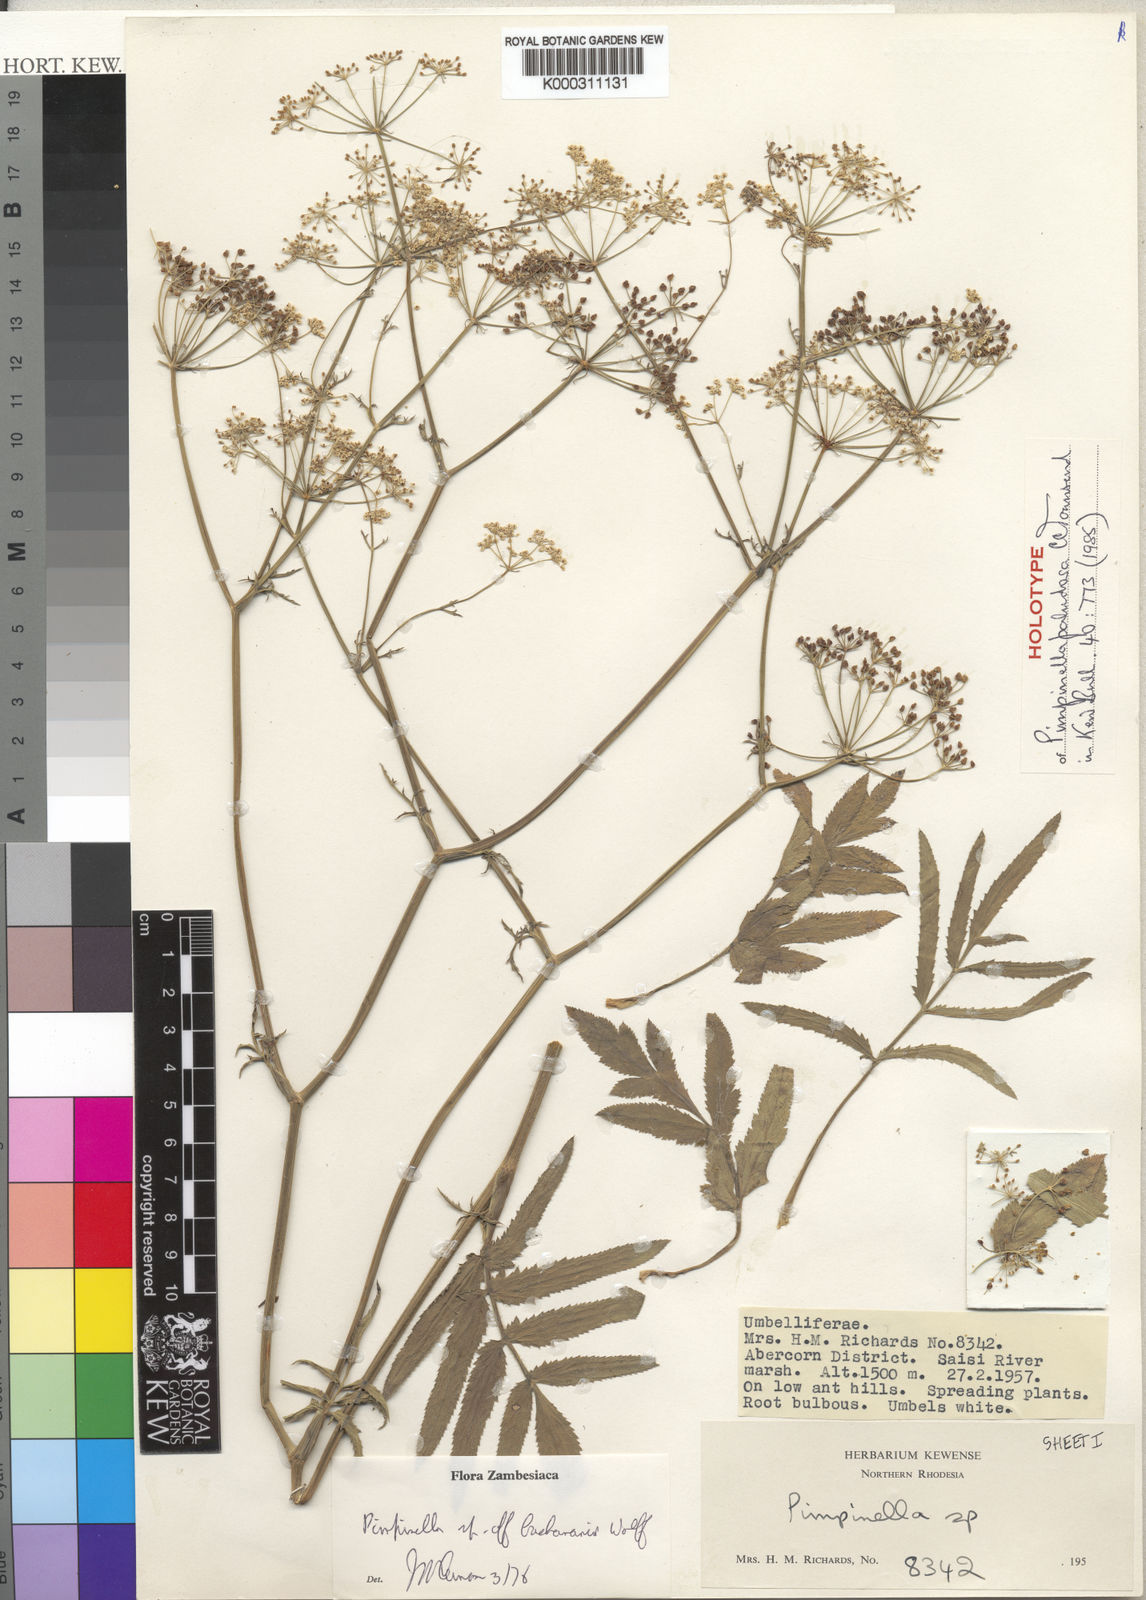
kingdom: Plantae
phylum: Tracheophyta
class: Magnoliopsida
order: Apiales
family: Apiaceae
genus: Pimpinella
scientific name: Pimpinella paludosa
